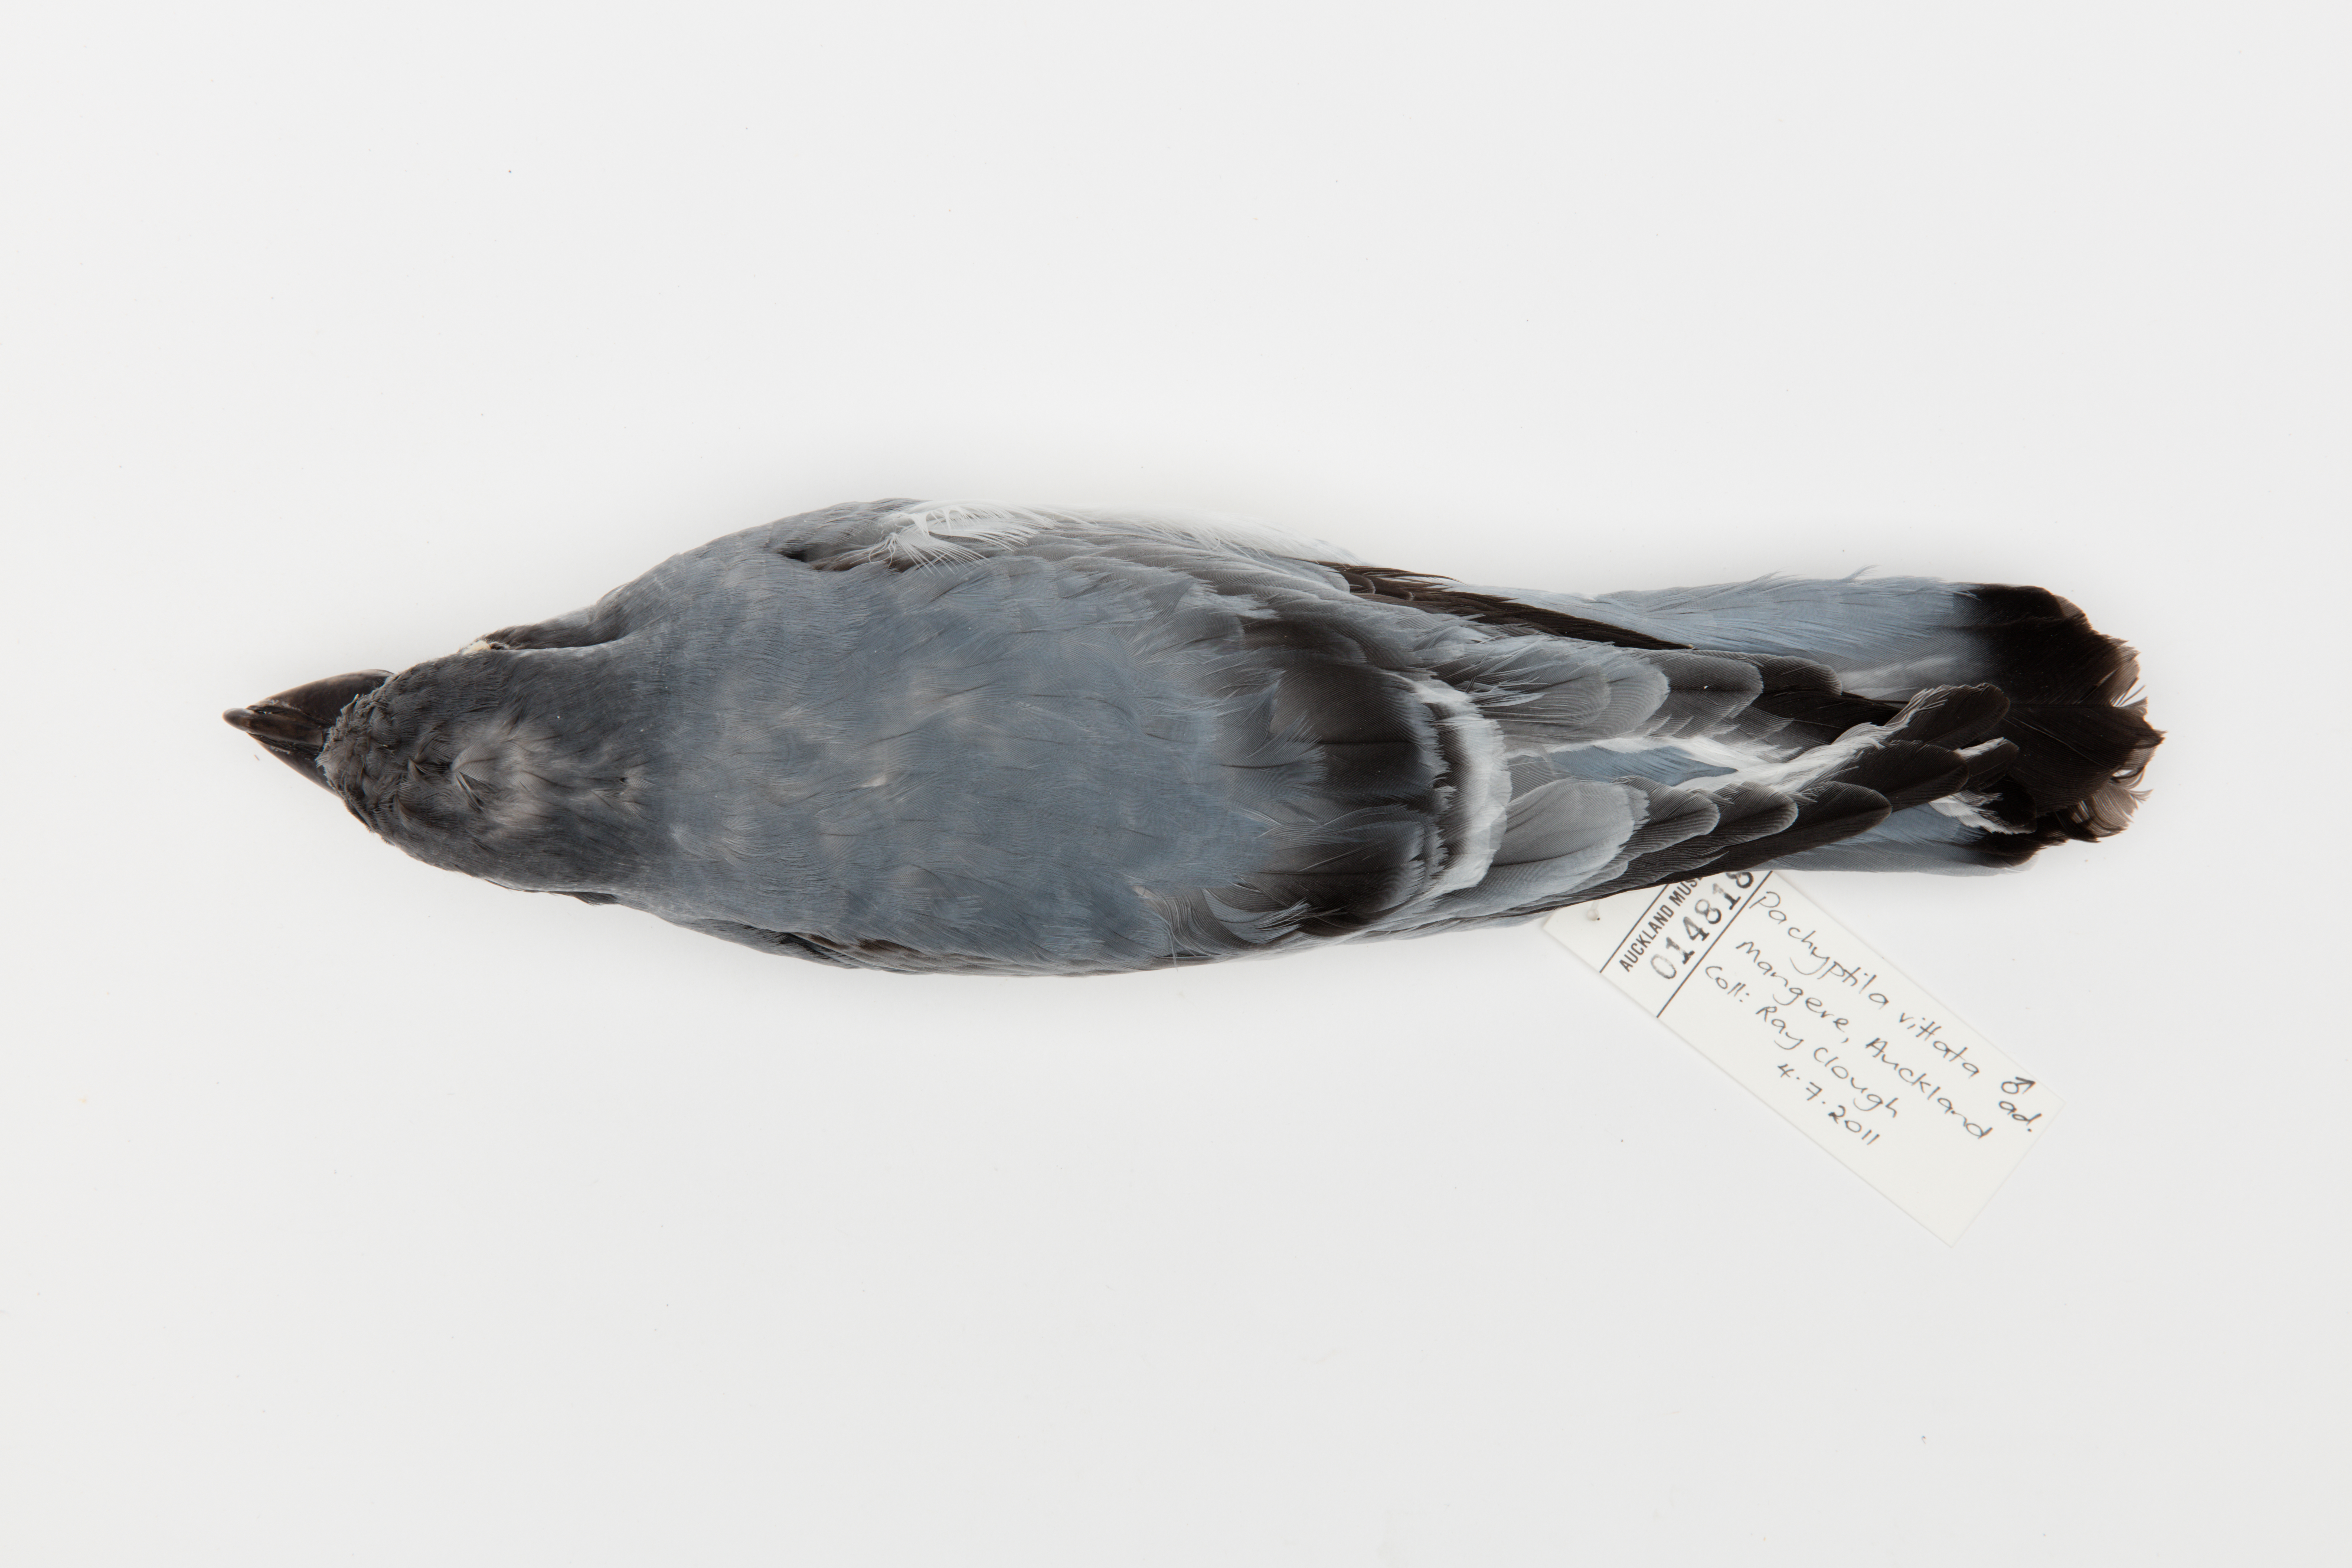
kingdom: Animalia
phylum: Chordata
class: Aves
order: Procellariiformes
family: Procellariidae
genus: Pachyptila
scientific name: Pachyptila vittata
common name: Broad-billed prion
